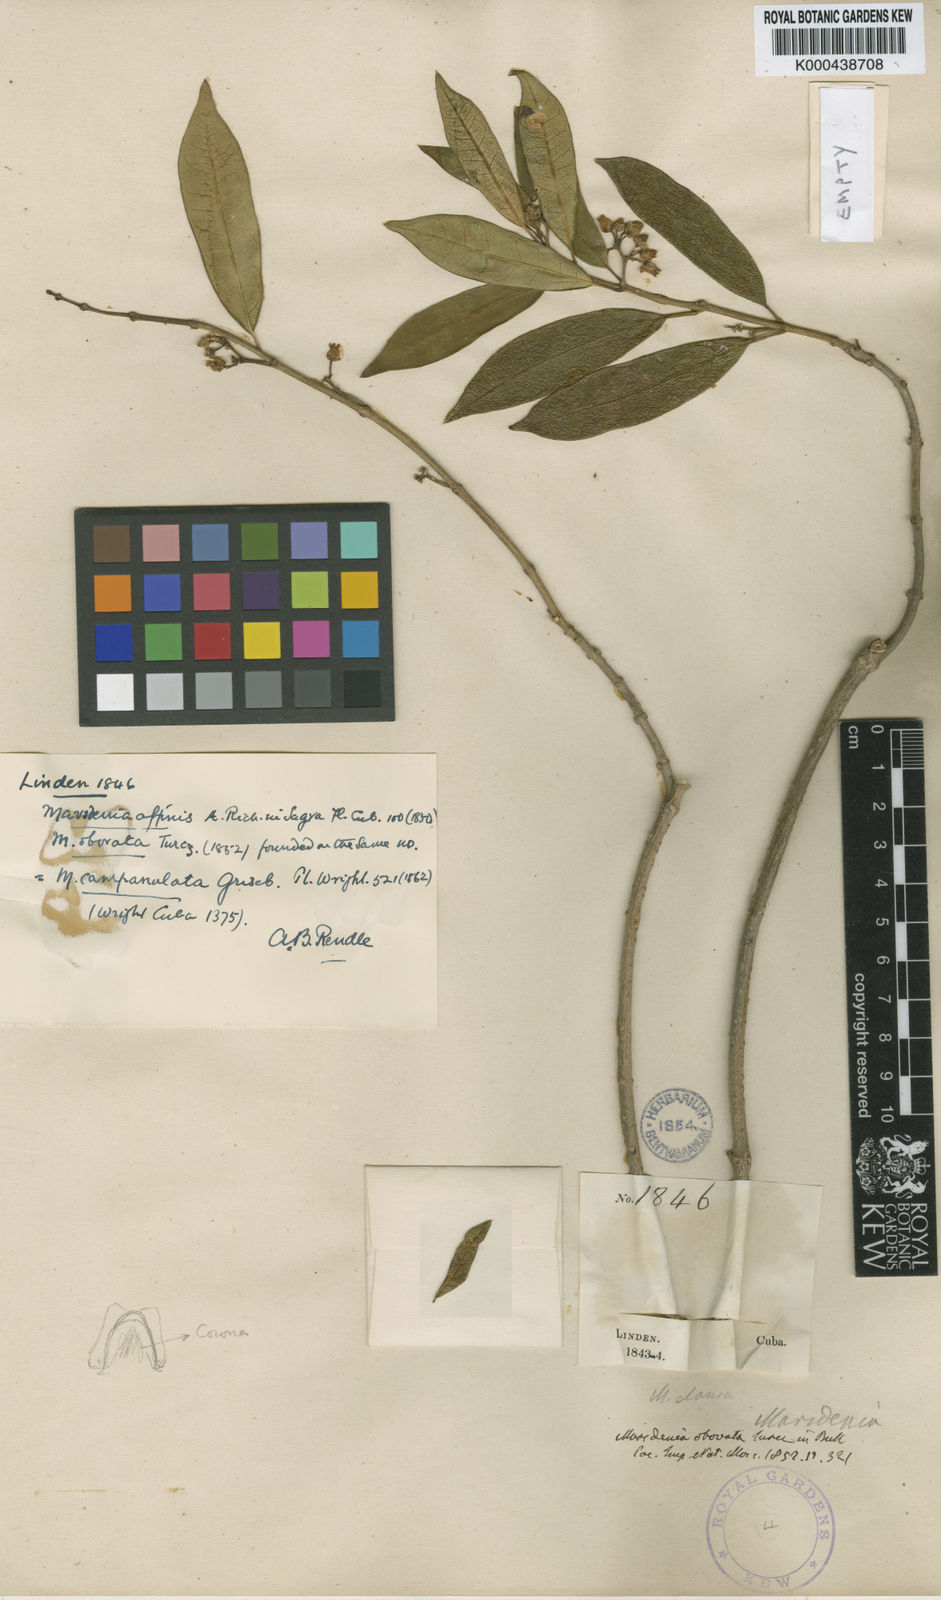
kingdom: Plantae
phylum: Tracheophyta
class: Magnoliopsida
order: Gentianales
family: Apocynaceae
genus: Ruehssia
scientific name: Ruehssia clausa
